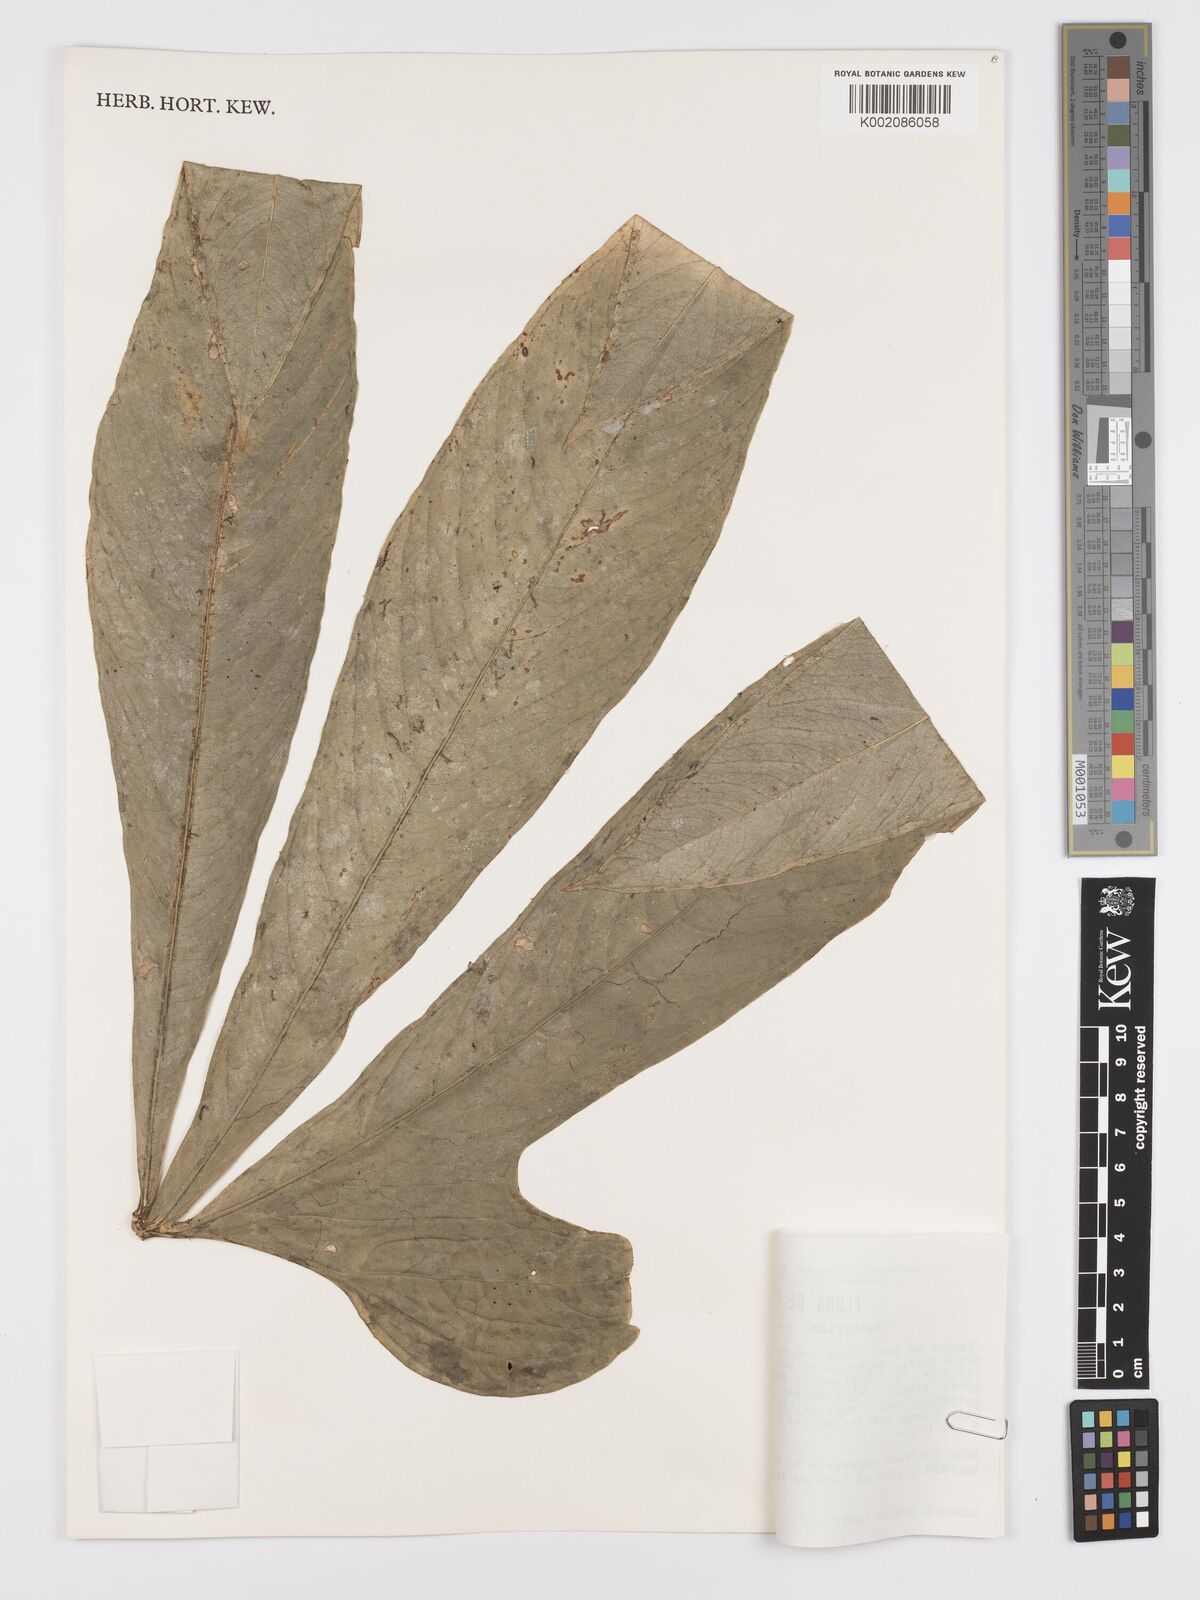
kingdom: Plantae
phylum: Tracheophyta
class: Liliopsida
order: Alismatales
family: Araceae
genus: Anthurium
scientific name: Anthurium expansum
